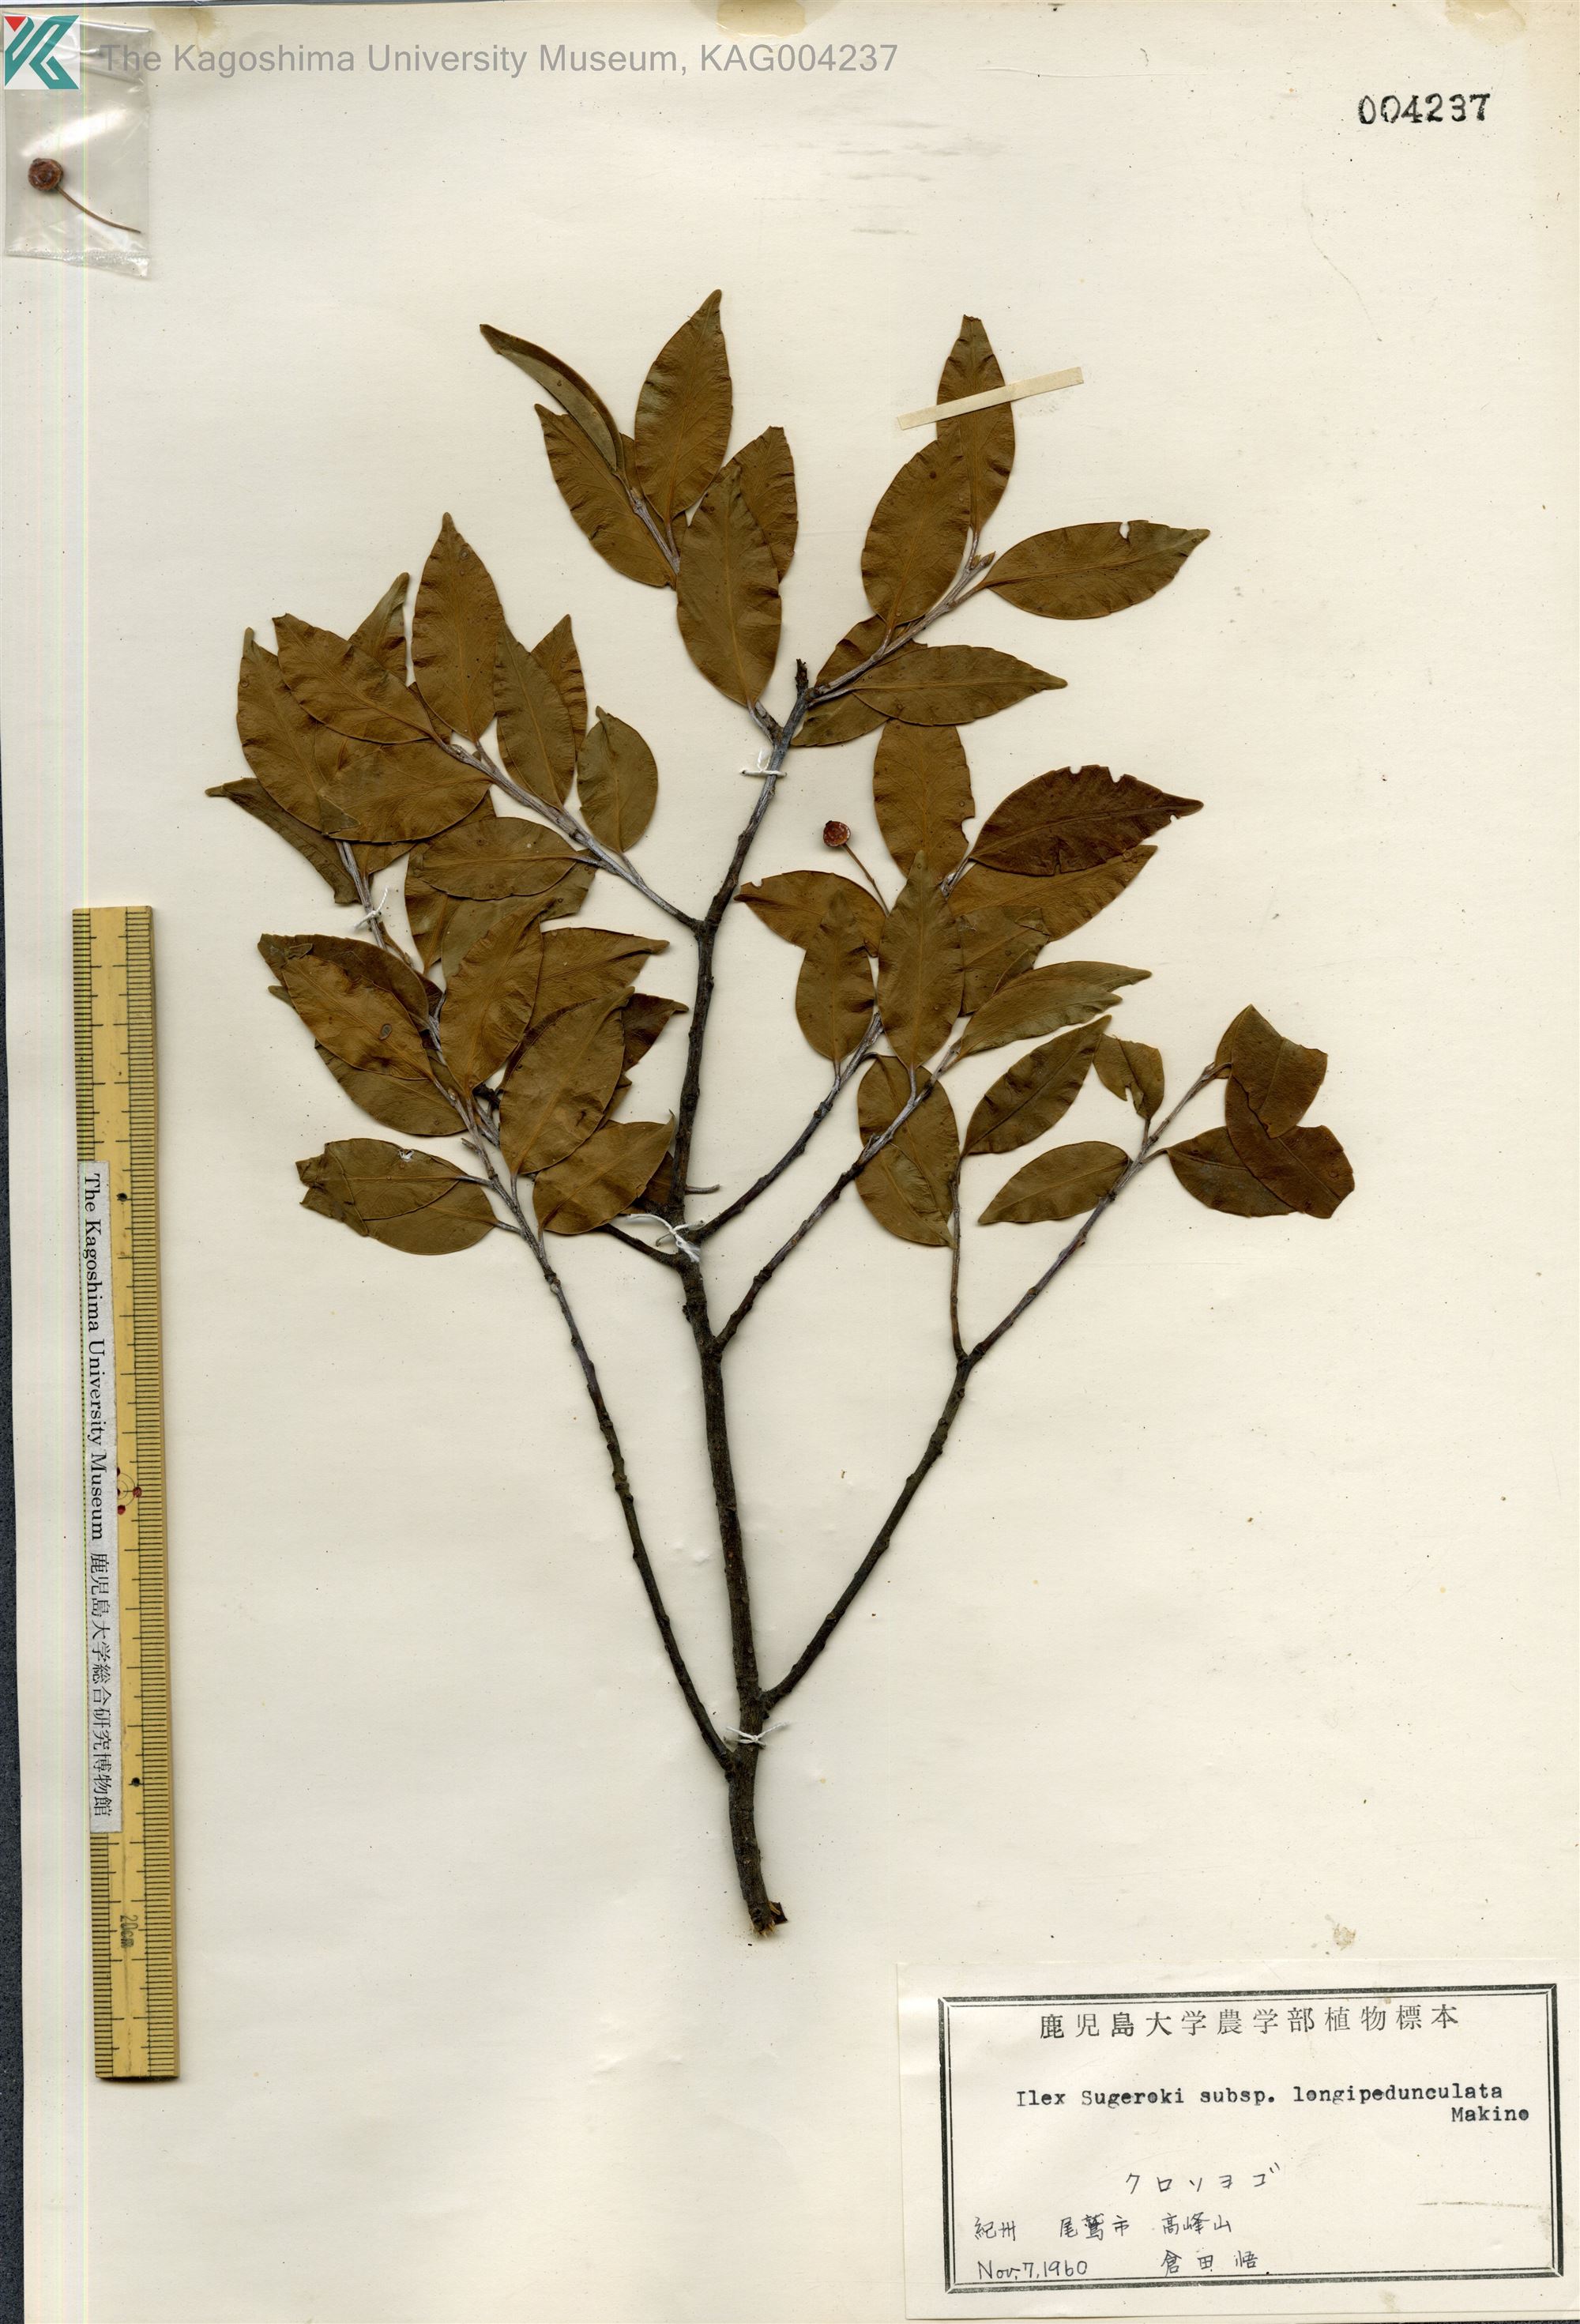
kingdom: Plantae
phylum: Tracheophyta
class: Magnoliopsida
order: Aquifoliales
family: Aquifoliaceae
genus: Ilex
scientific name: Ilex sugerokii
